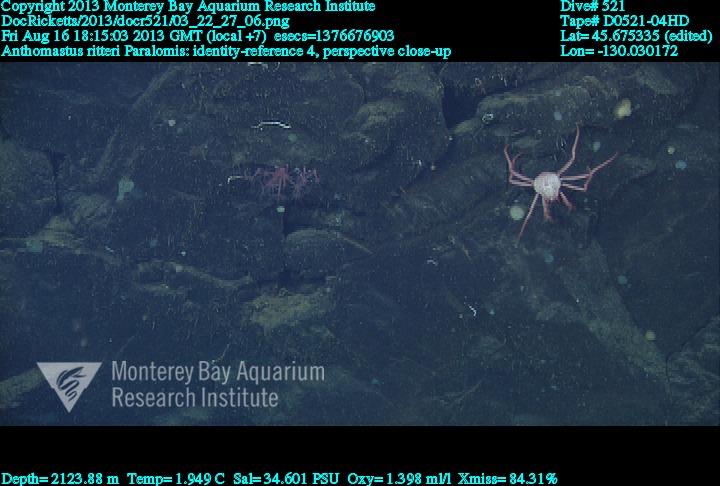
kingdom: Animalia
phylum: Cnidaria
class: Anthozoa
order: Scleralcyonacea
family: Coralliidae
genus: Heteropolypus
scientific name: Heteropolypus ritteri
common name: Ritter's soft coral
